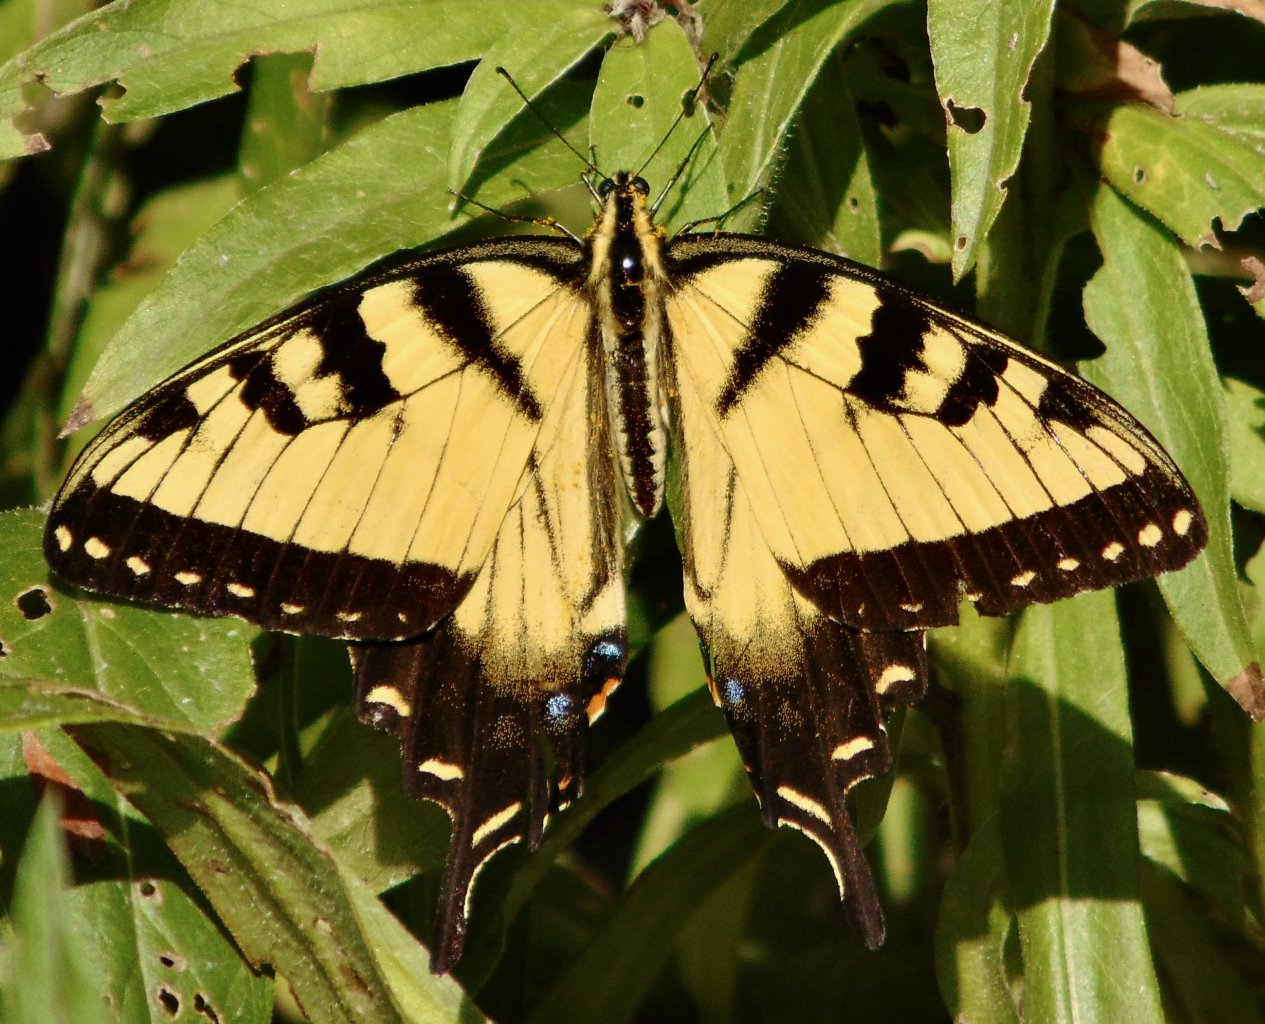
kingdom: Animalia
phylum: Arthropoda
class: Insecta
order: Lepidoptera
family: Papilionidae
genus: Pterourus
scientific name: Pterourus glaucus
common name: Eastern Tiger Swallowtail
